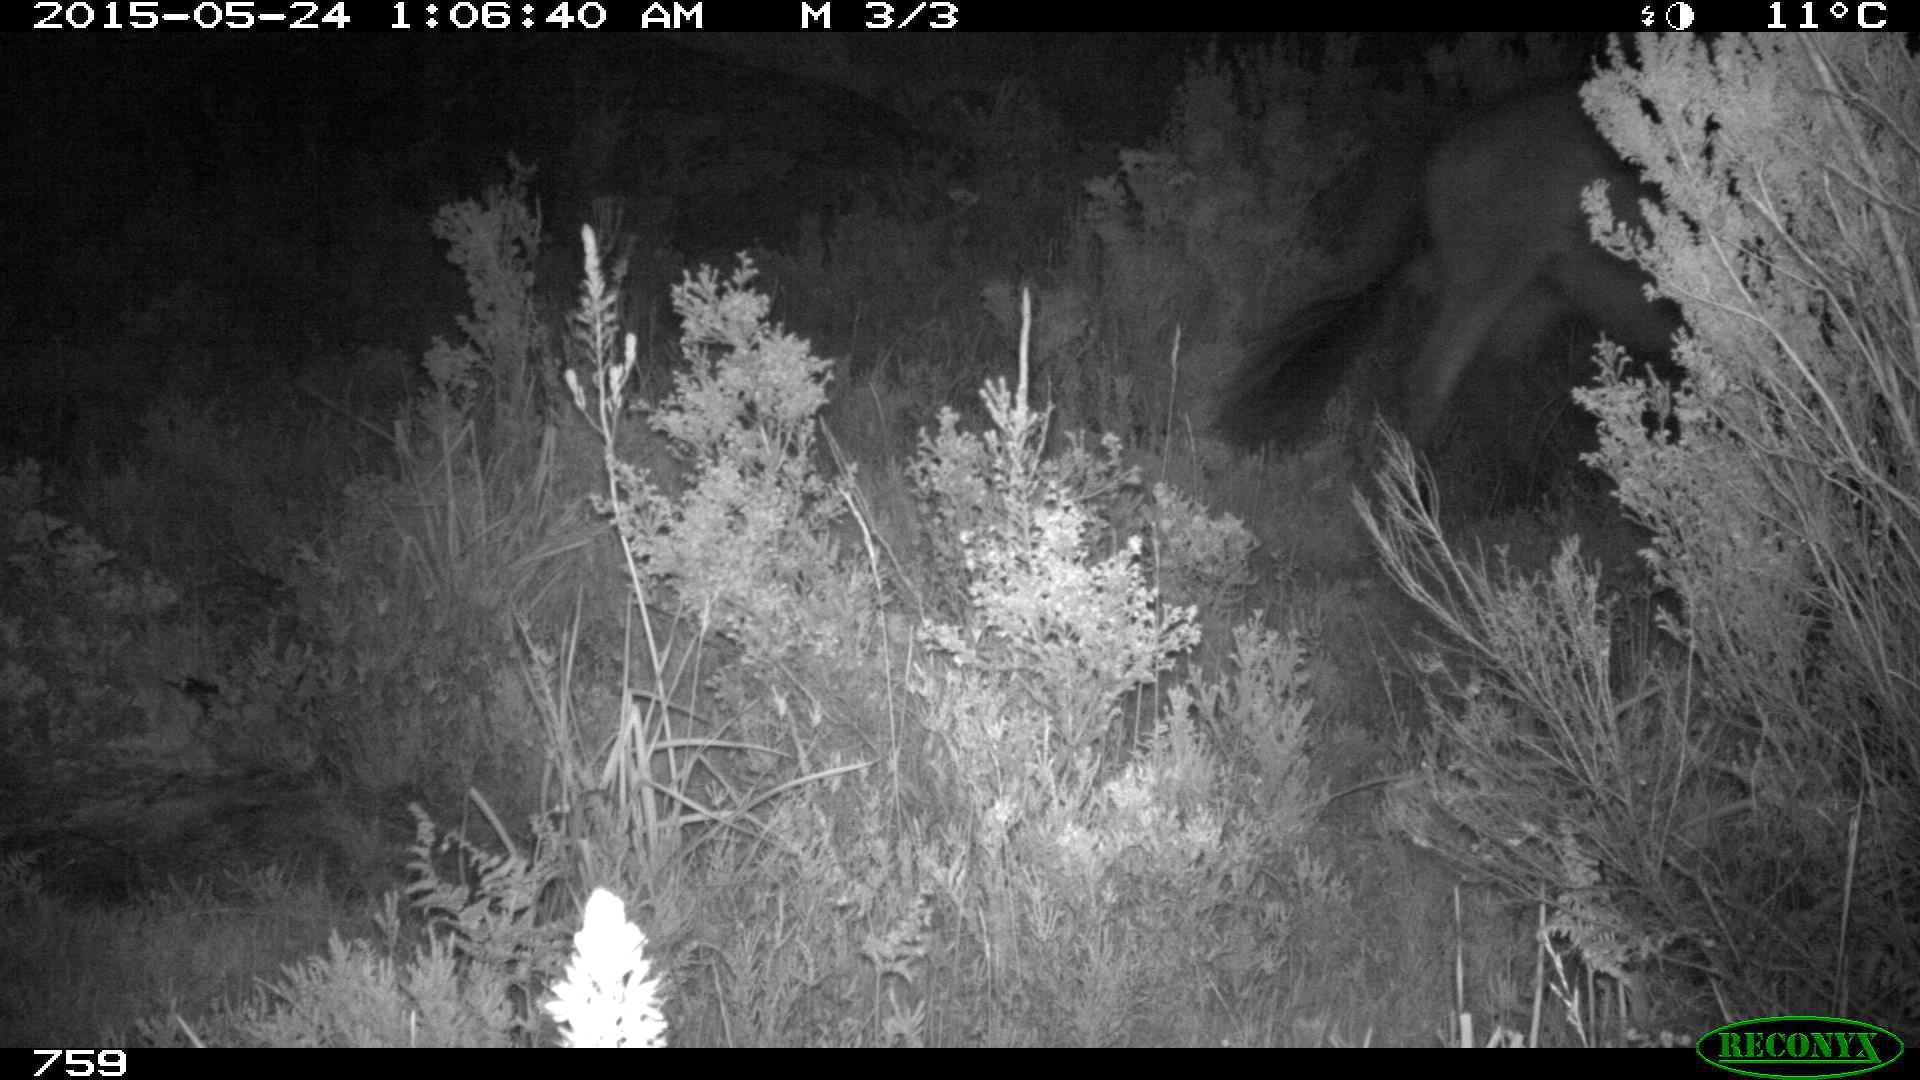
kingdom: Animalia
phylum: Chordata
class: Mammalia
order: Perissodactyla
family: Equidae
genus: Equus
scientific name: Equus caballus
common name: Horse
